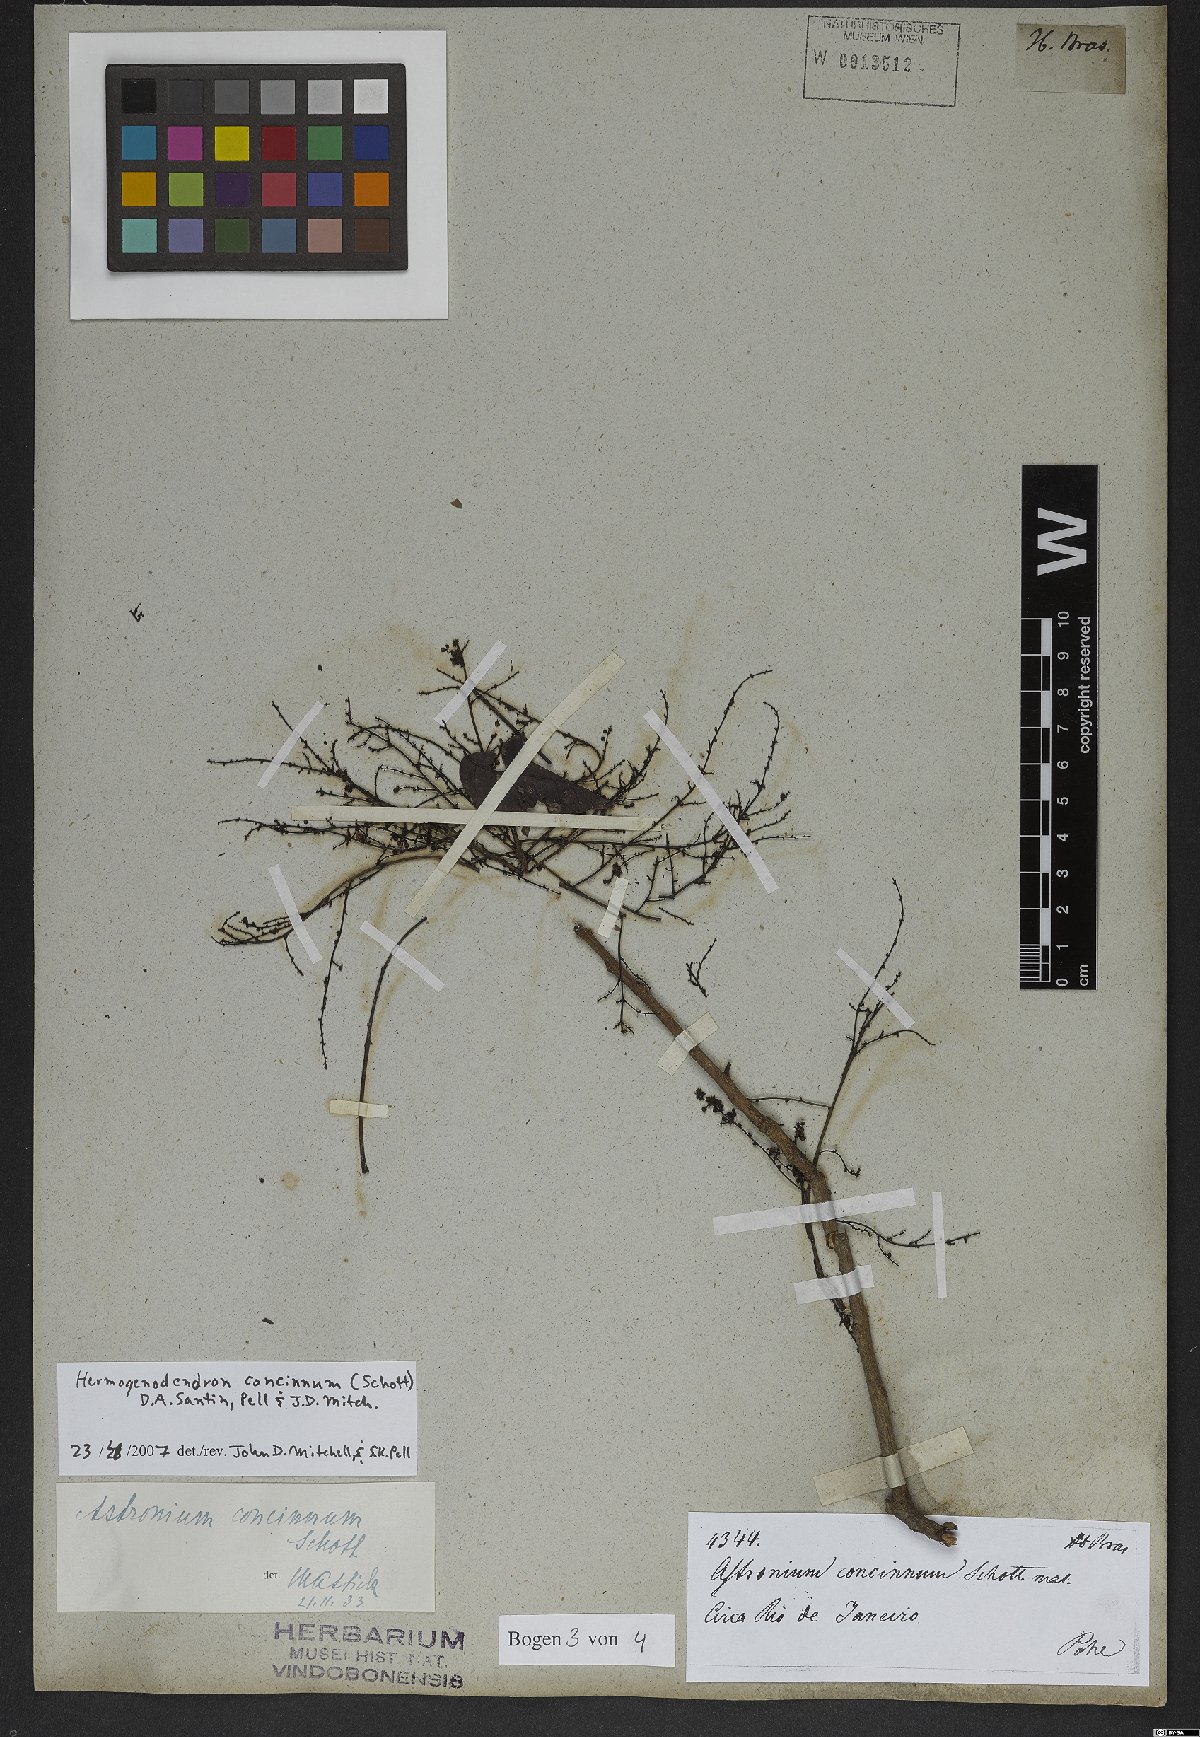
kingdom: Plantae
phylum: Tracheophyta
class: Magnoliopsida
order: Sapindales
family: Anacardiaceae
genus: Myracrodruon
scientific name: Myracrodruon urundeuva
